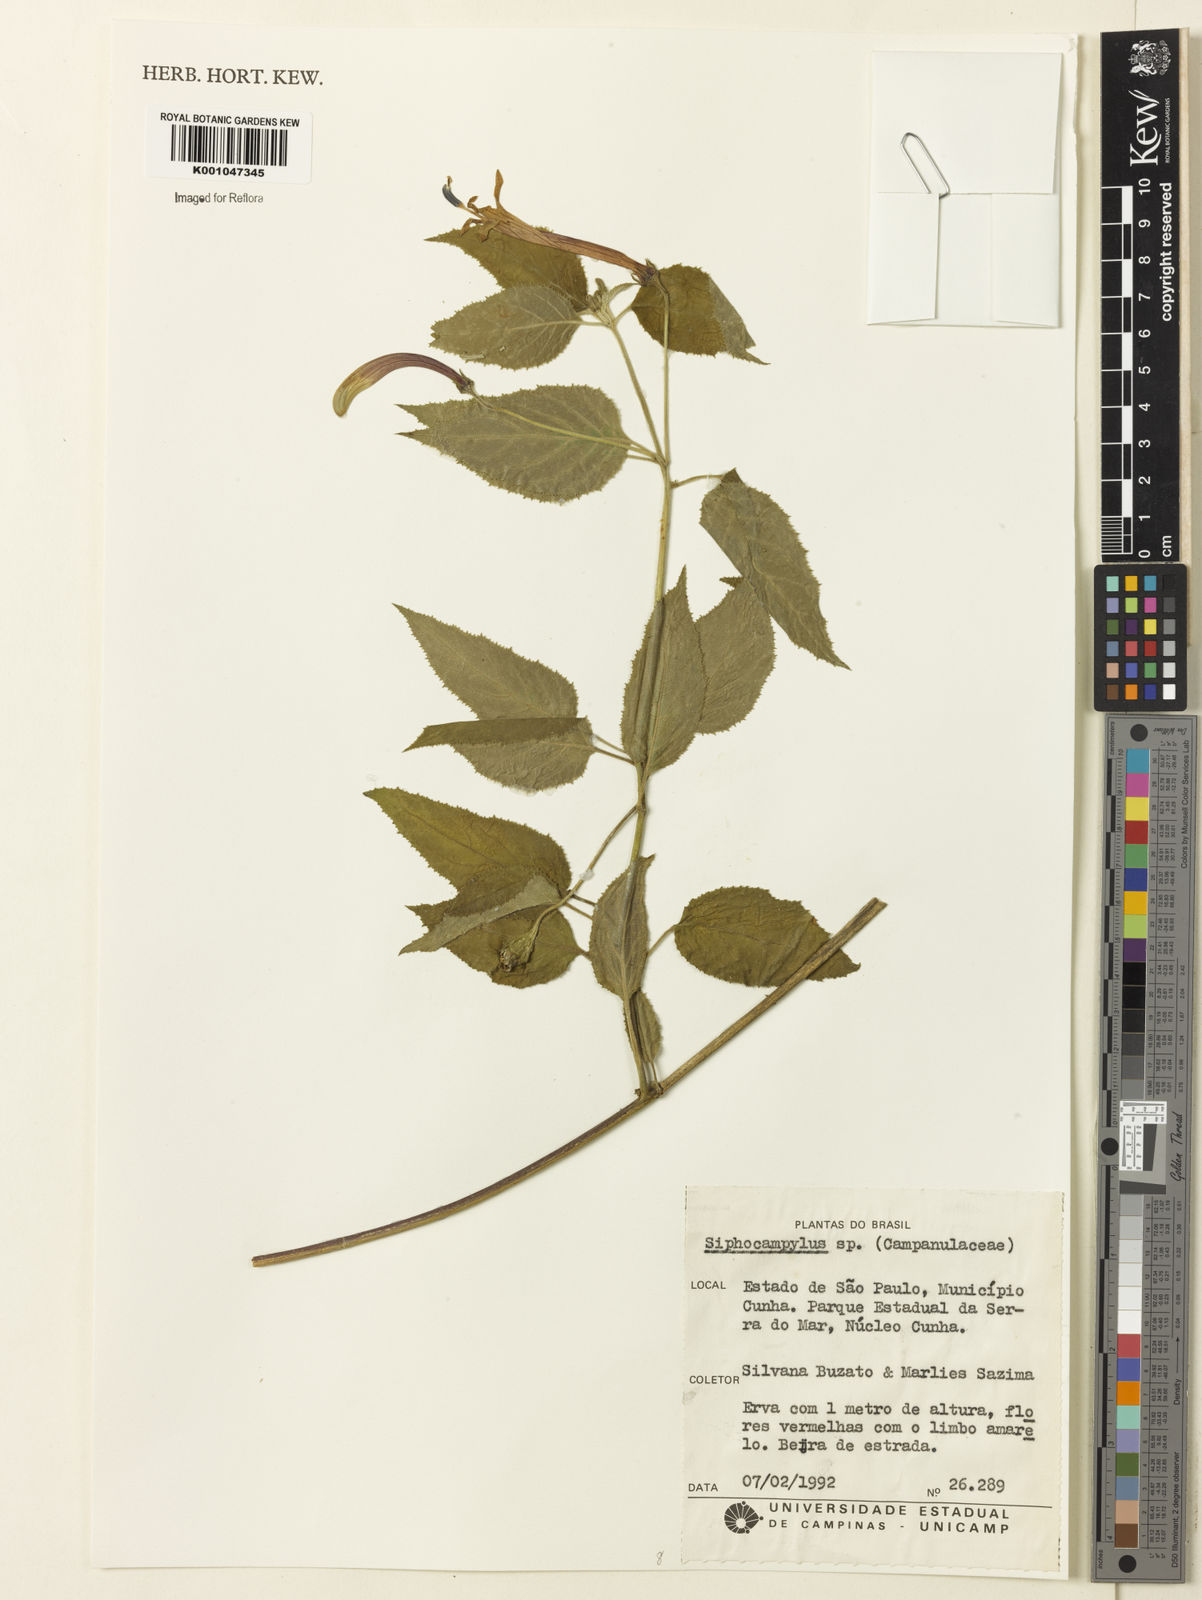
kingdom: Plantae
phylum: Tracheophyta
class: Magnoliopsida
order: Asterales
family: Campanulaceae
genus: Siphocampylus
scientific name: Siphocampylus
